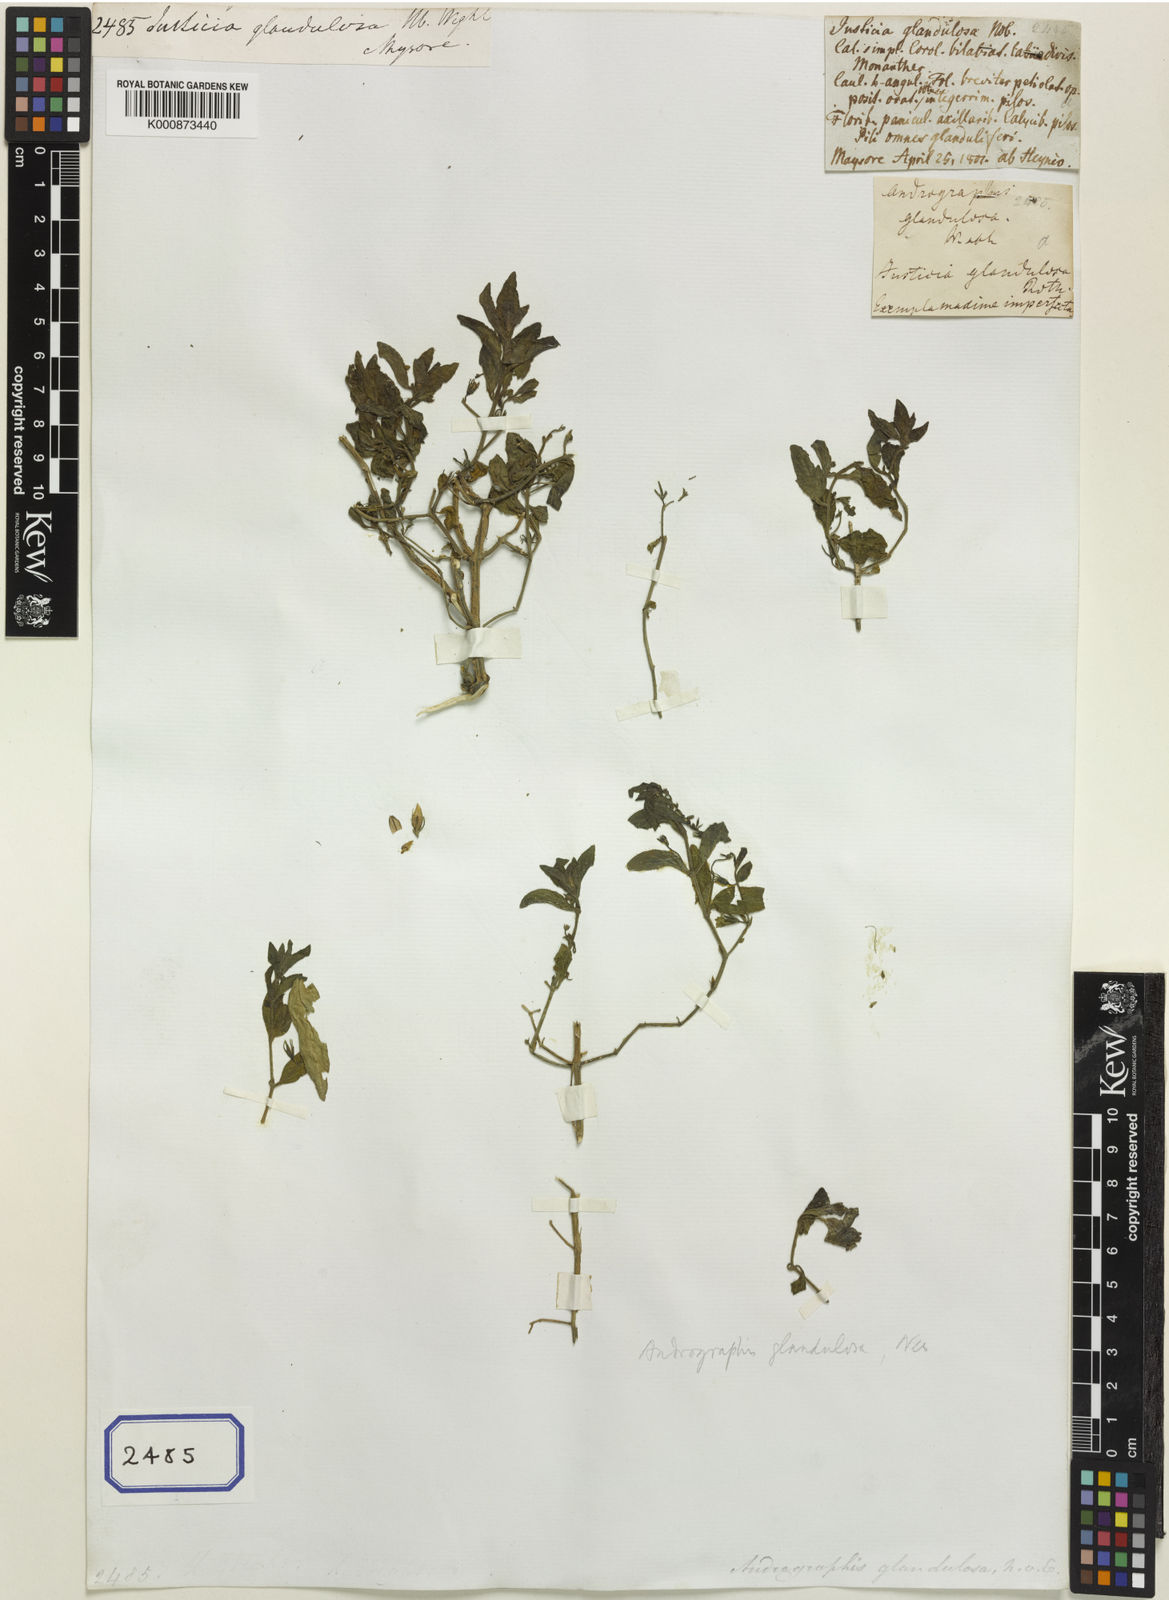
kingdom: Plantae
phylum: Tracheophyta
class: Magnoliopsida
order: Lamiales
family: Acanthaceae
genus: Andrographis
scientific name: Andrographis glandulosa
